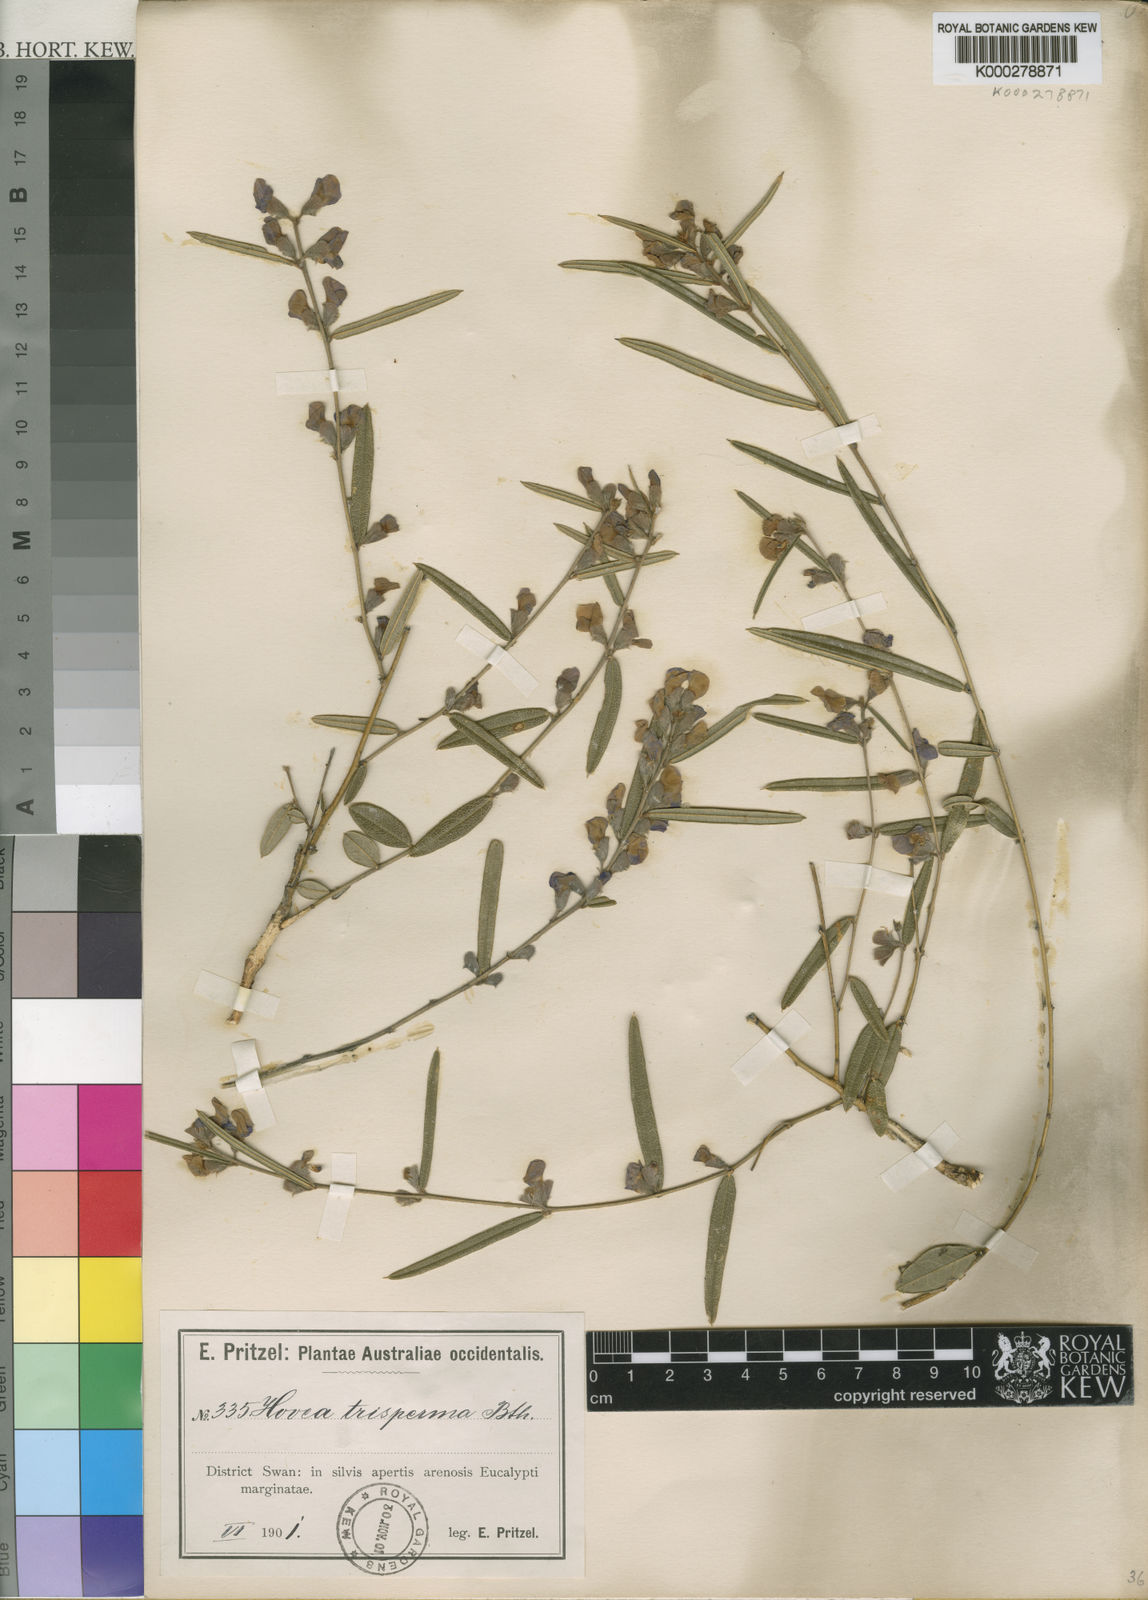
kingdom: Plantae
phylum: Tracheophyta
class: Magnoliopsida
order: Fabales
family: Fabaceae
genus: Hovea
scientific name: Hovea trisperma
